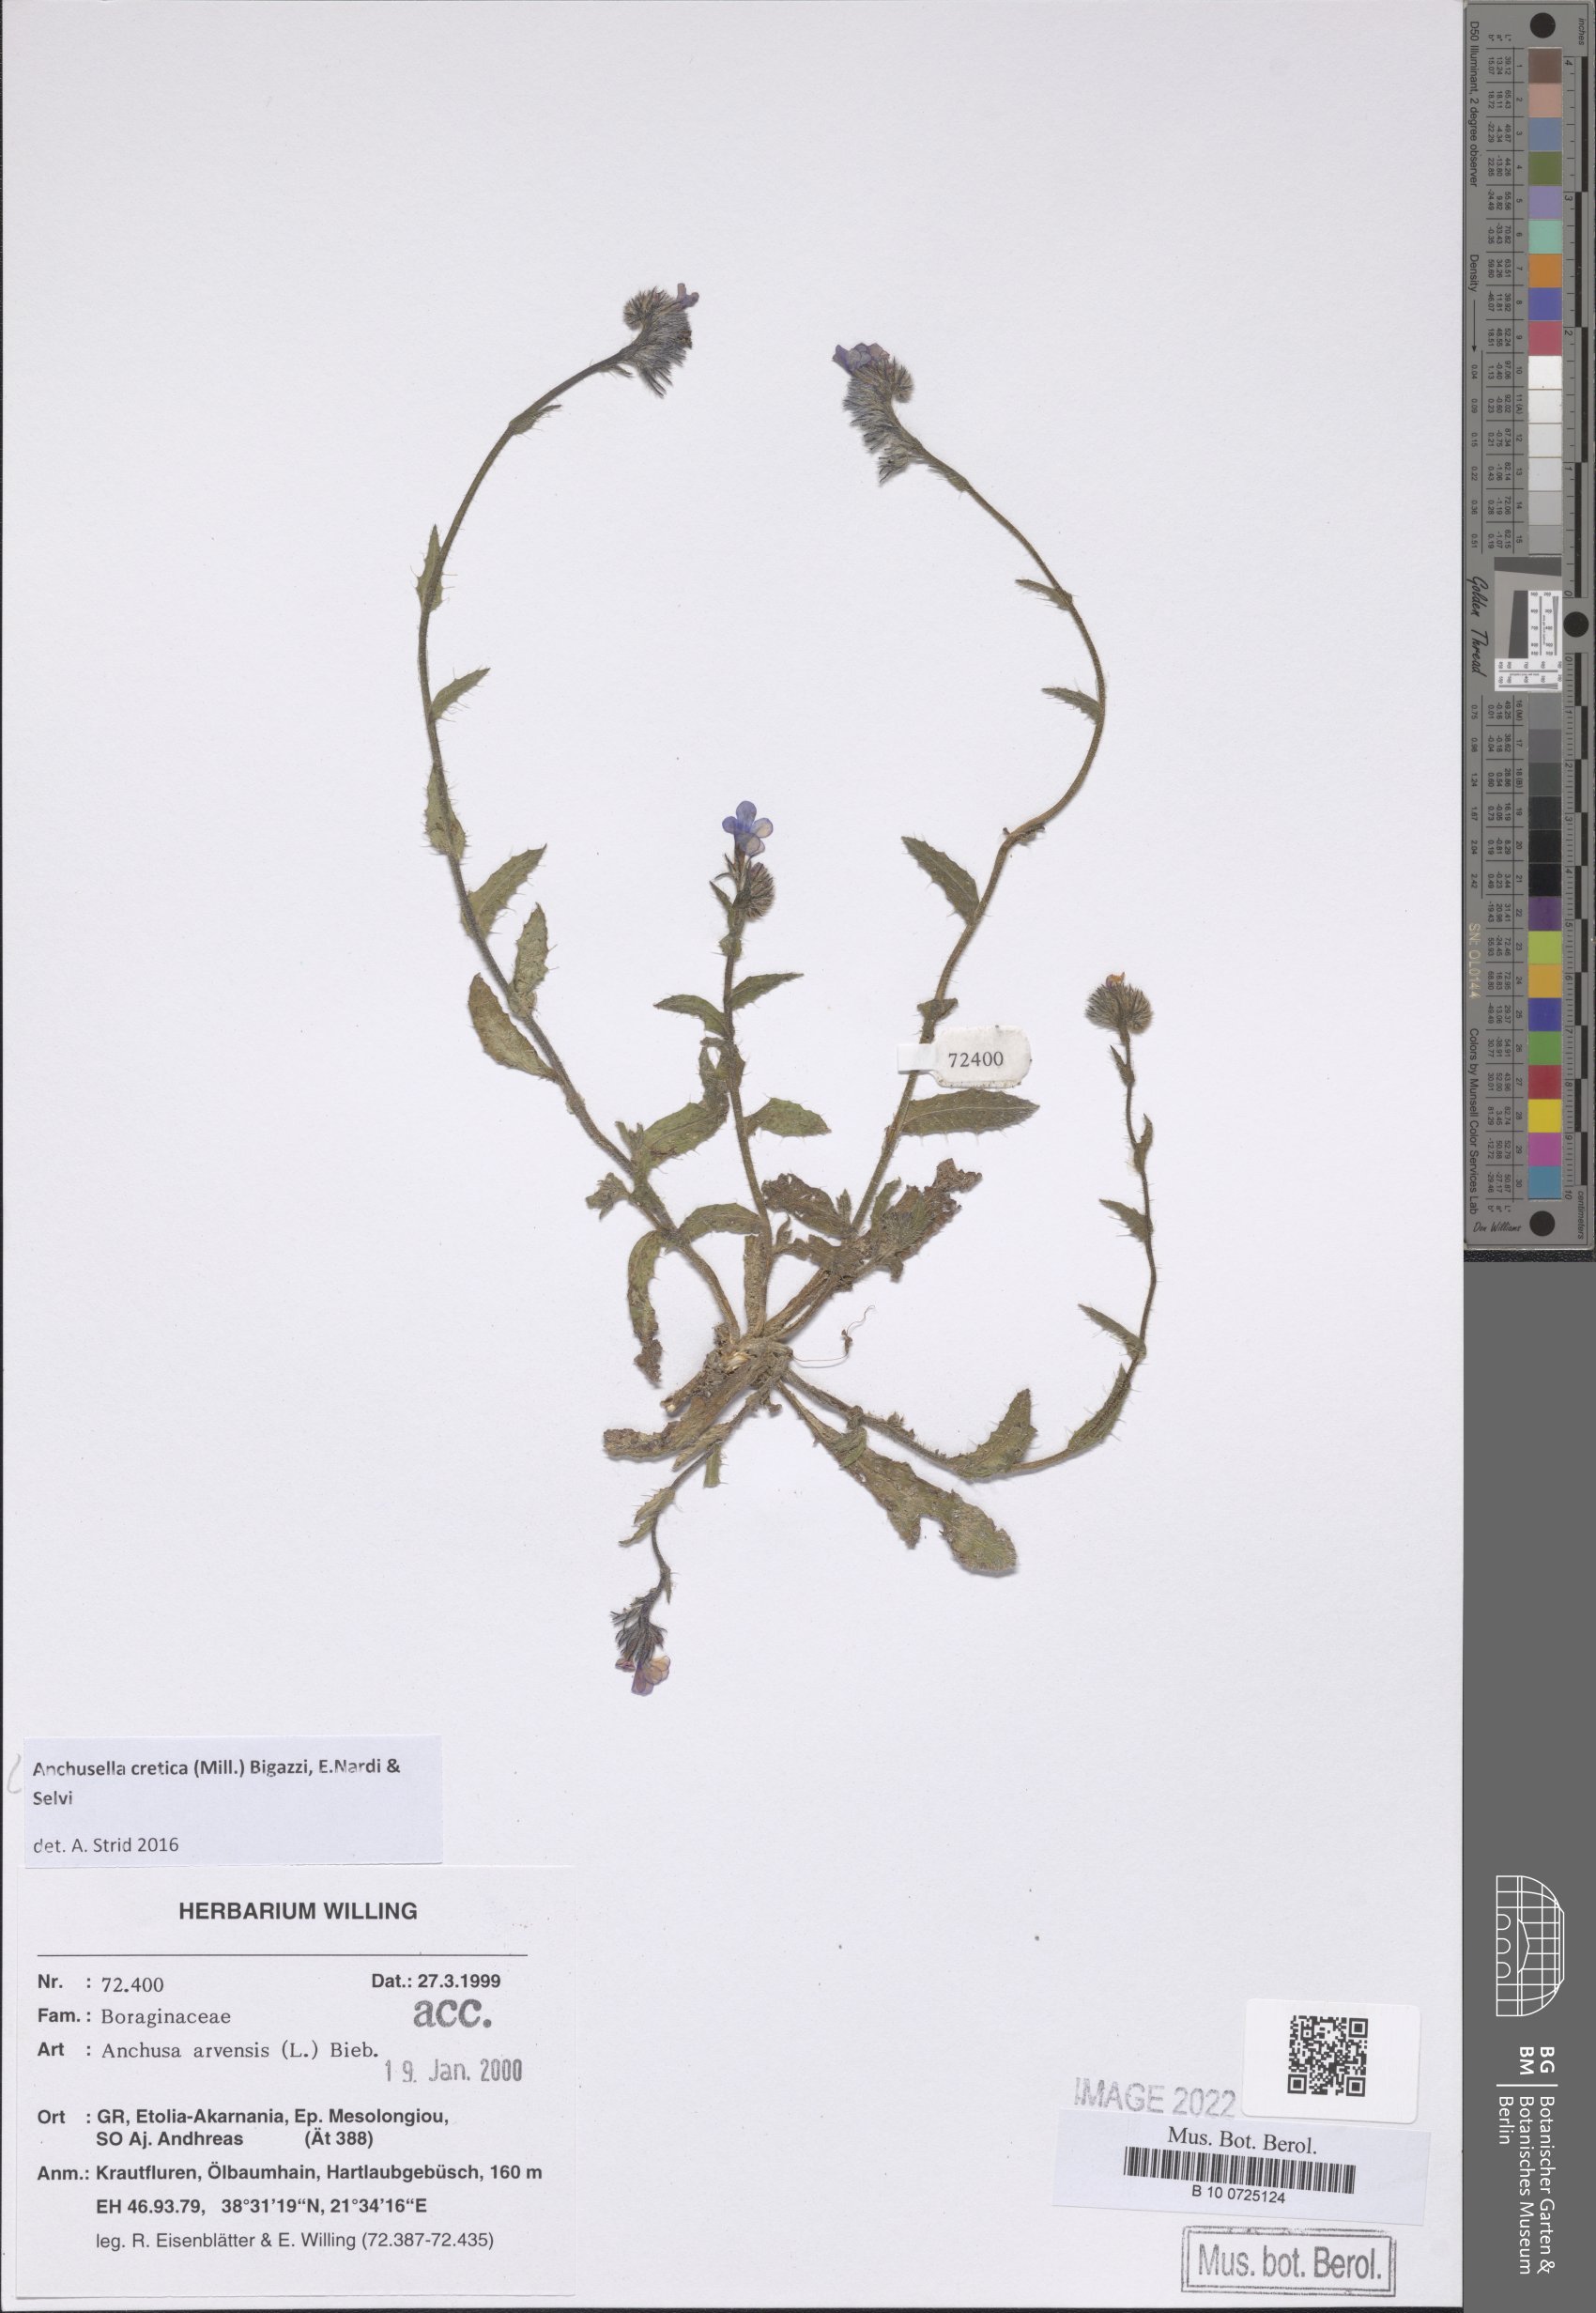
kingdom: Plantae
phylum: Tracheophyta
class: Magnoliopsida
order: Boraginales
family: Boraginaceae
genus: Anchusella
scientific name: Anchusella cretica
